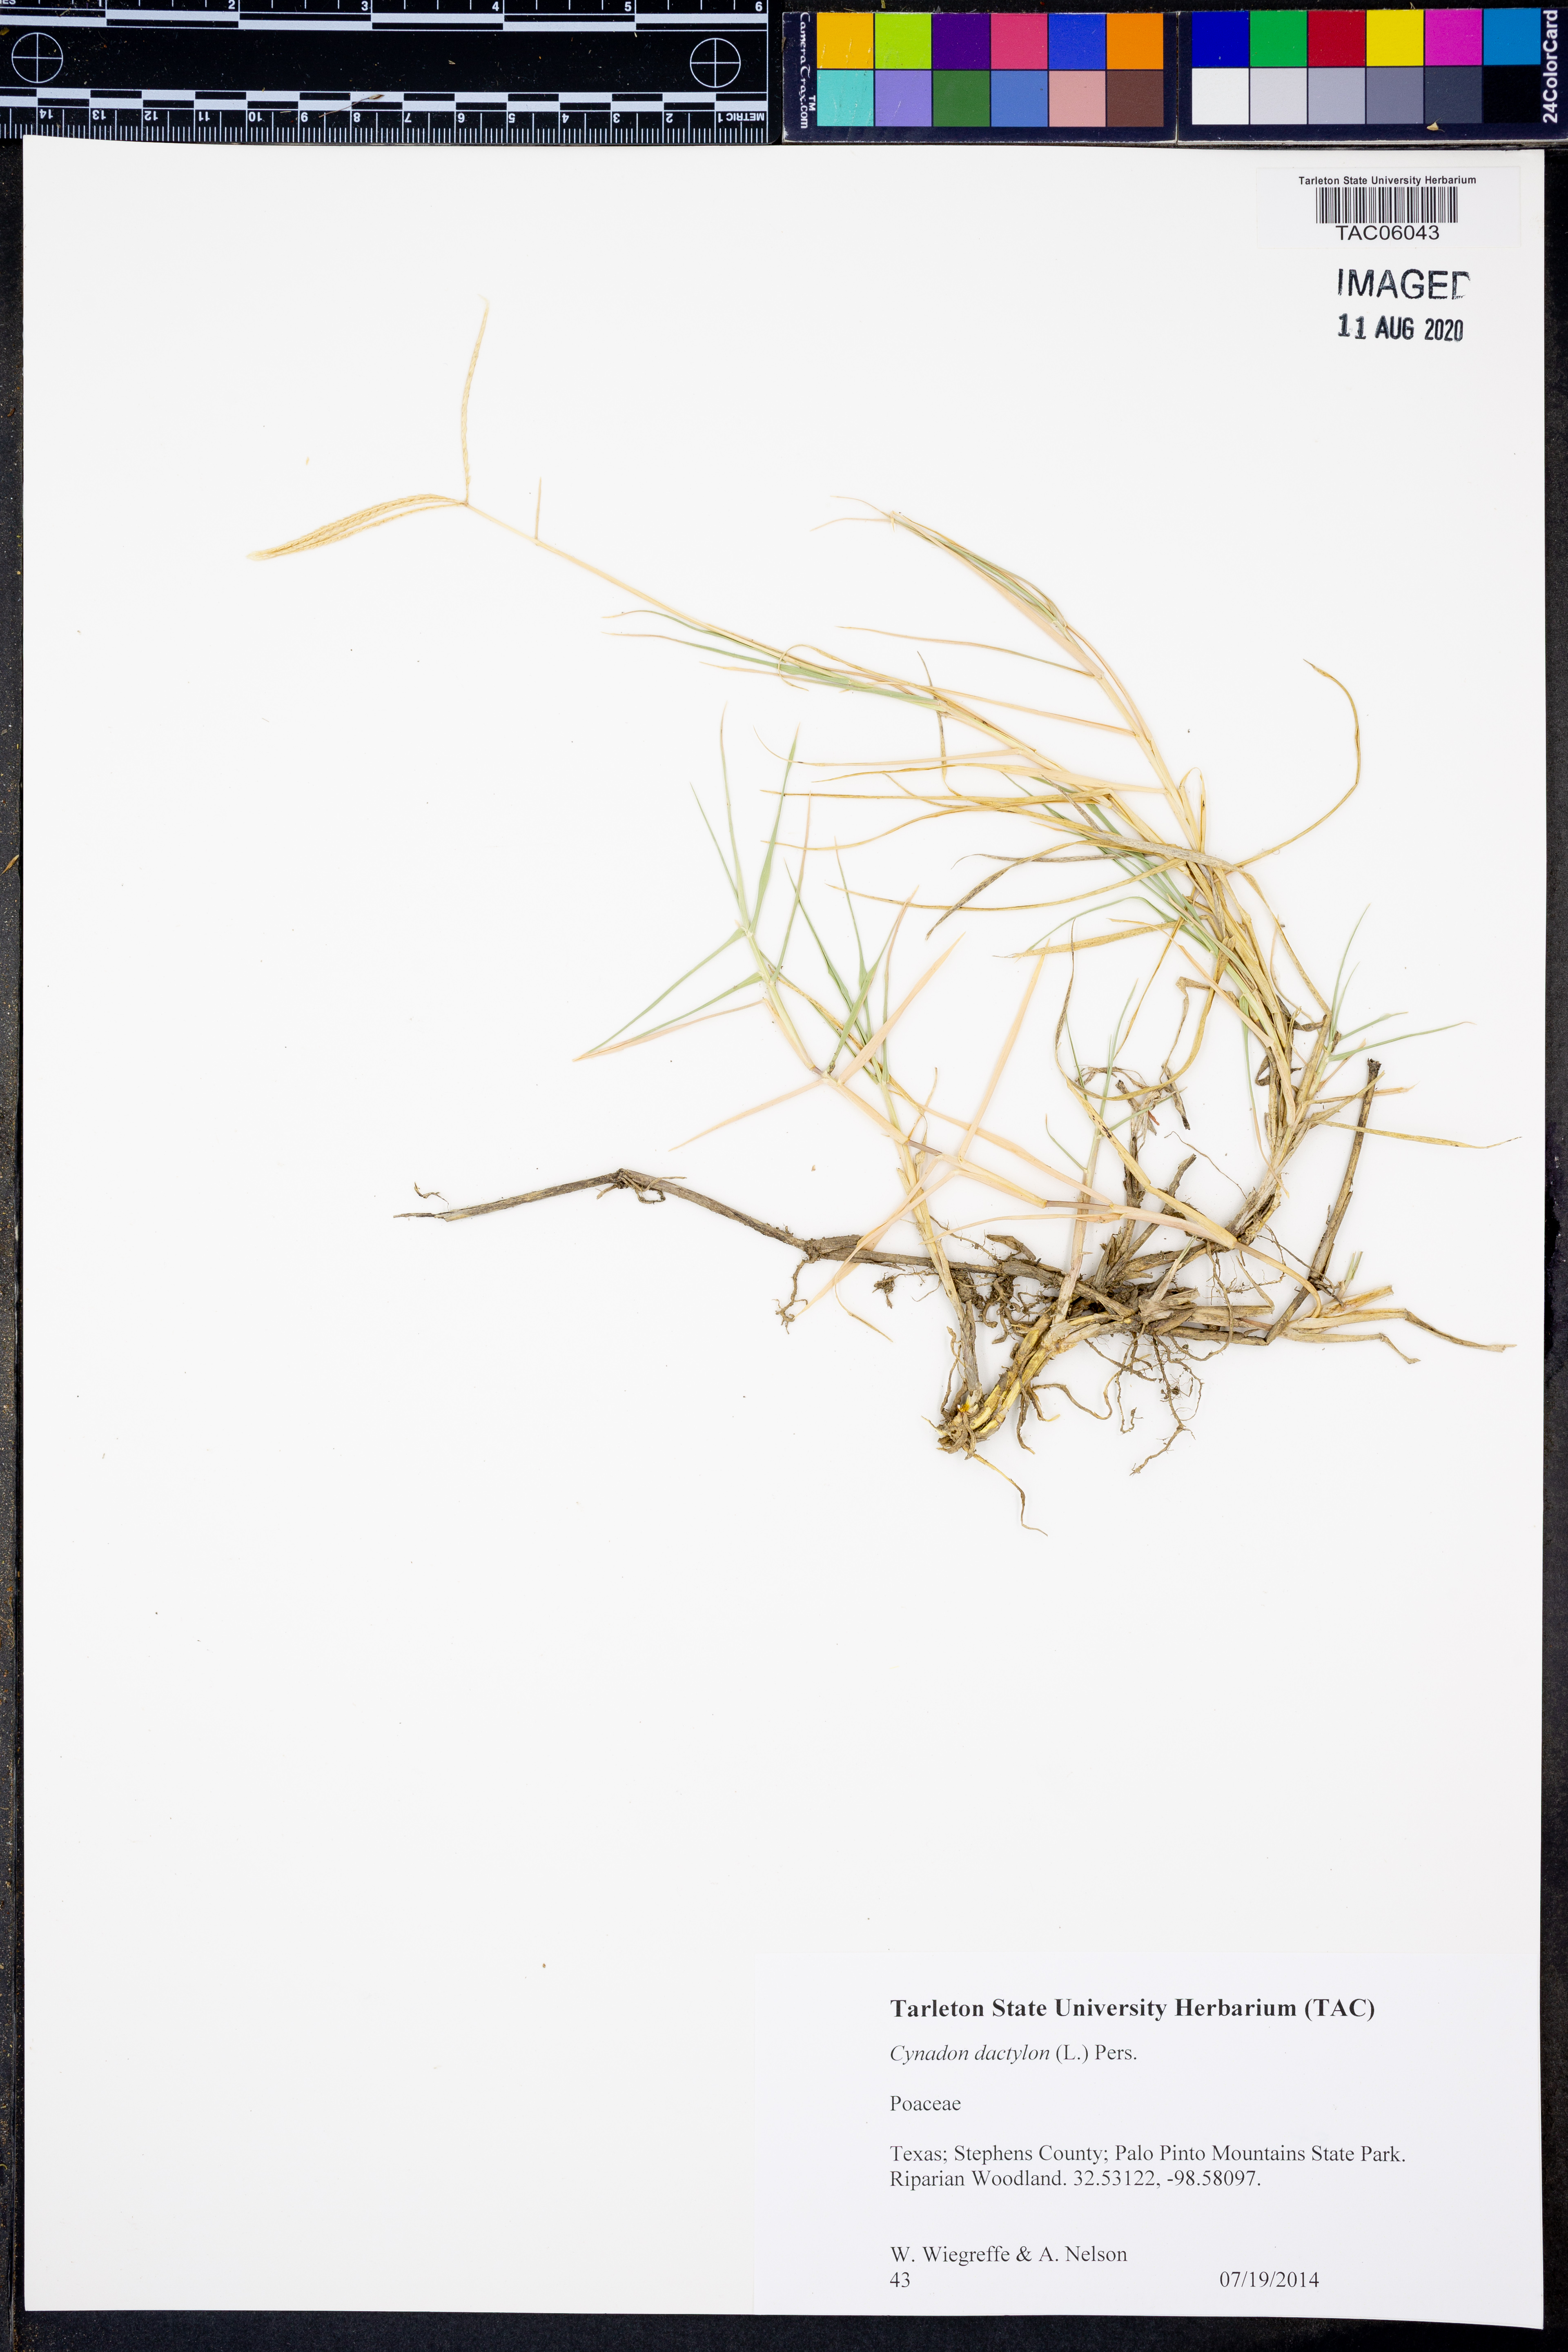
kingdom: Plantae
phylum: Tracheophyta
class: Liliopsida
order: Poales
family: Poaceae
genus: Cynodon
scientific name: Cynodon dactylon
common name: Bermuda grass
